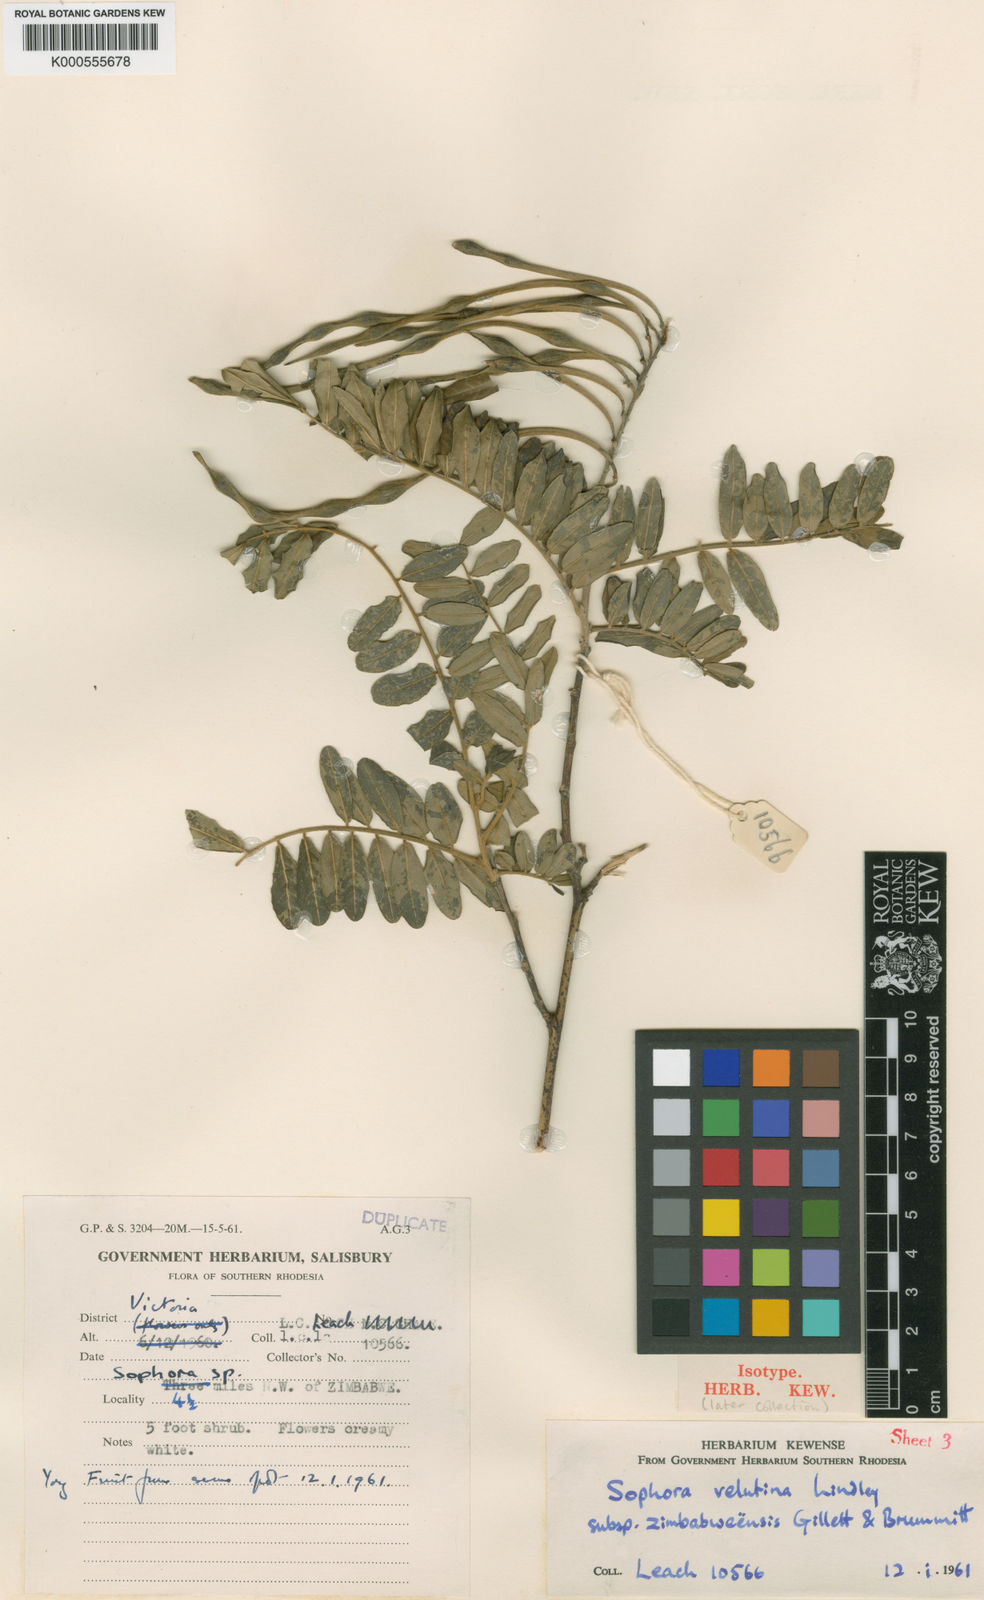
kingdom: Plantae
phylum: Tracheophyta
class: Magnoliopsida
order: Fabales
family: Fabaceae
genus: Sophora
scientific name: Sophora velutina
